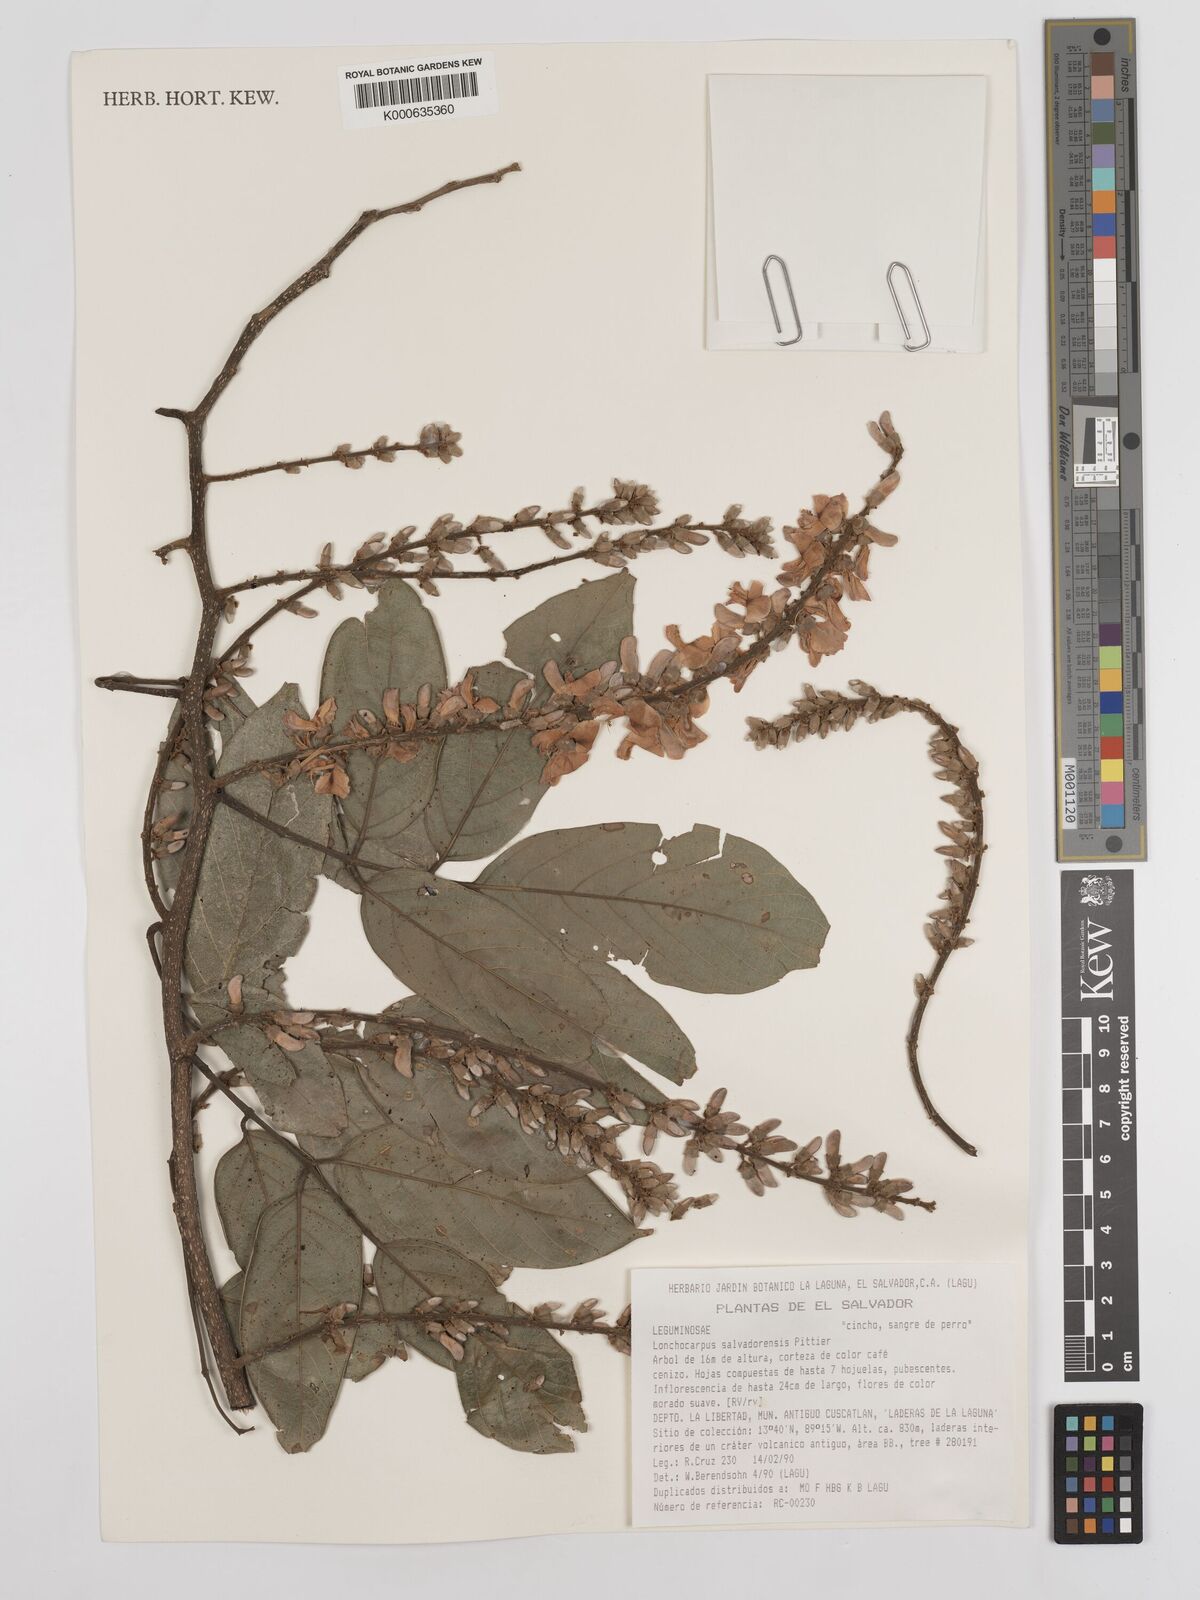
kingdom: Plantae
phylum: Tracheophyta
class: Magnoliopsida
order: Fabales
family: Fabaceae
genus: Lonchocarpus
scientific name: Lonchocarpus salvadorensis
